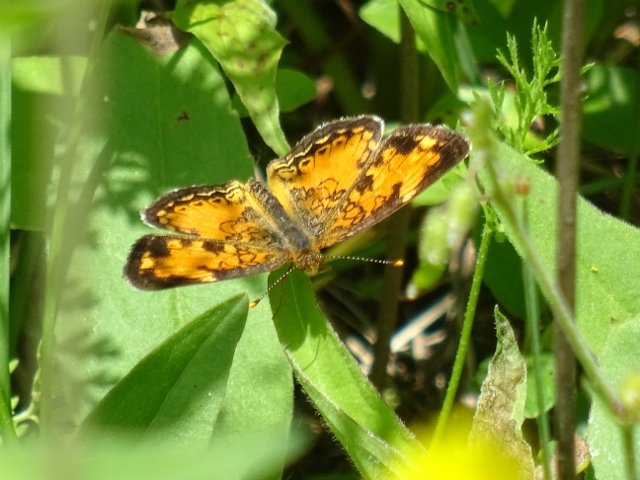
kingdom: Animalia
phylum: Arthropoda
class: Insecta
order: Lepidoptera
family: Nymphalidae
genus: Phyciodes
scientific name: Phyciodes tharos
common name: Northern Crescent
